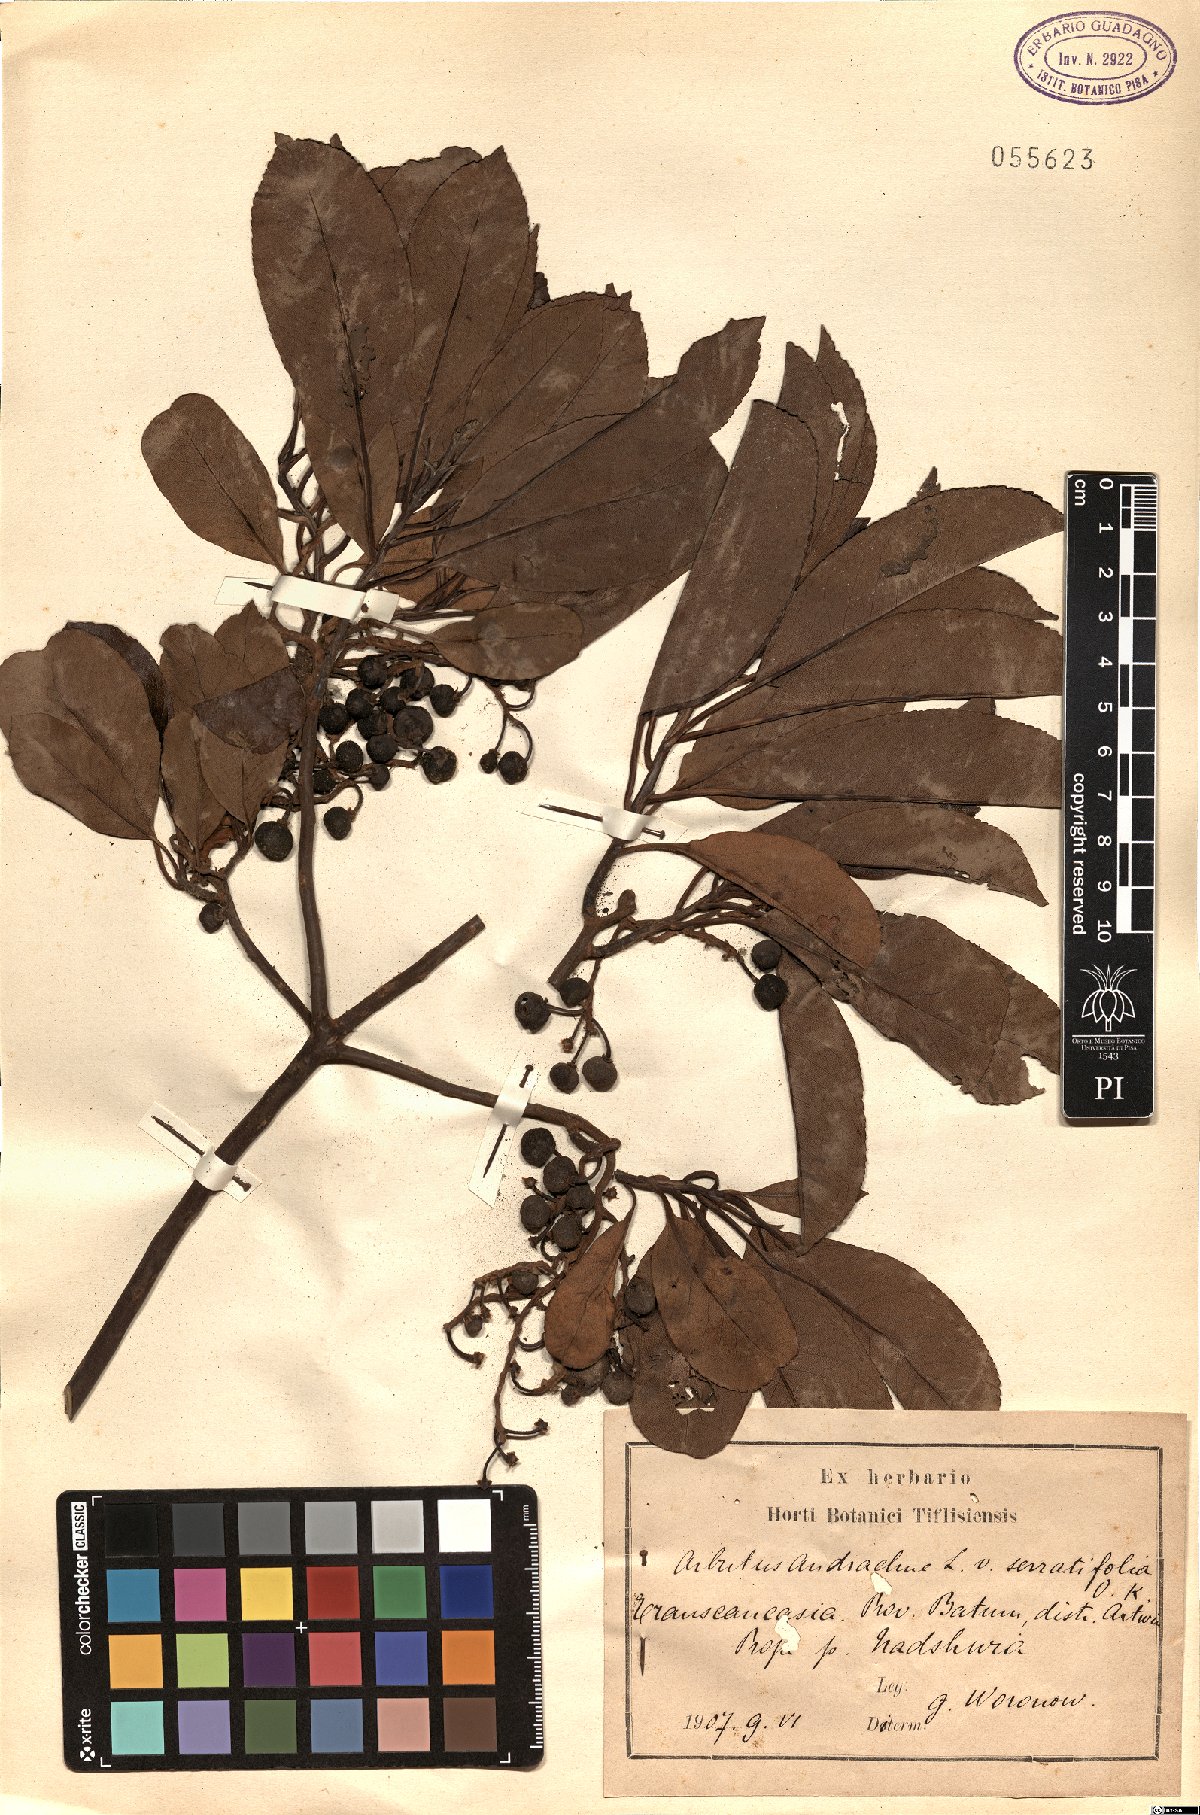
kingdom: Plantae
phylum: Tracheophyta
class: Magnoliopsida
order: Ericales
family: Ericaceae
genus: Arbutus
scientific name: Arbutus andrachne
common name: Greek strawberry tree
